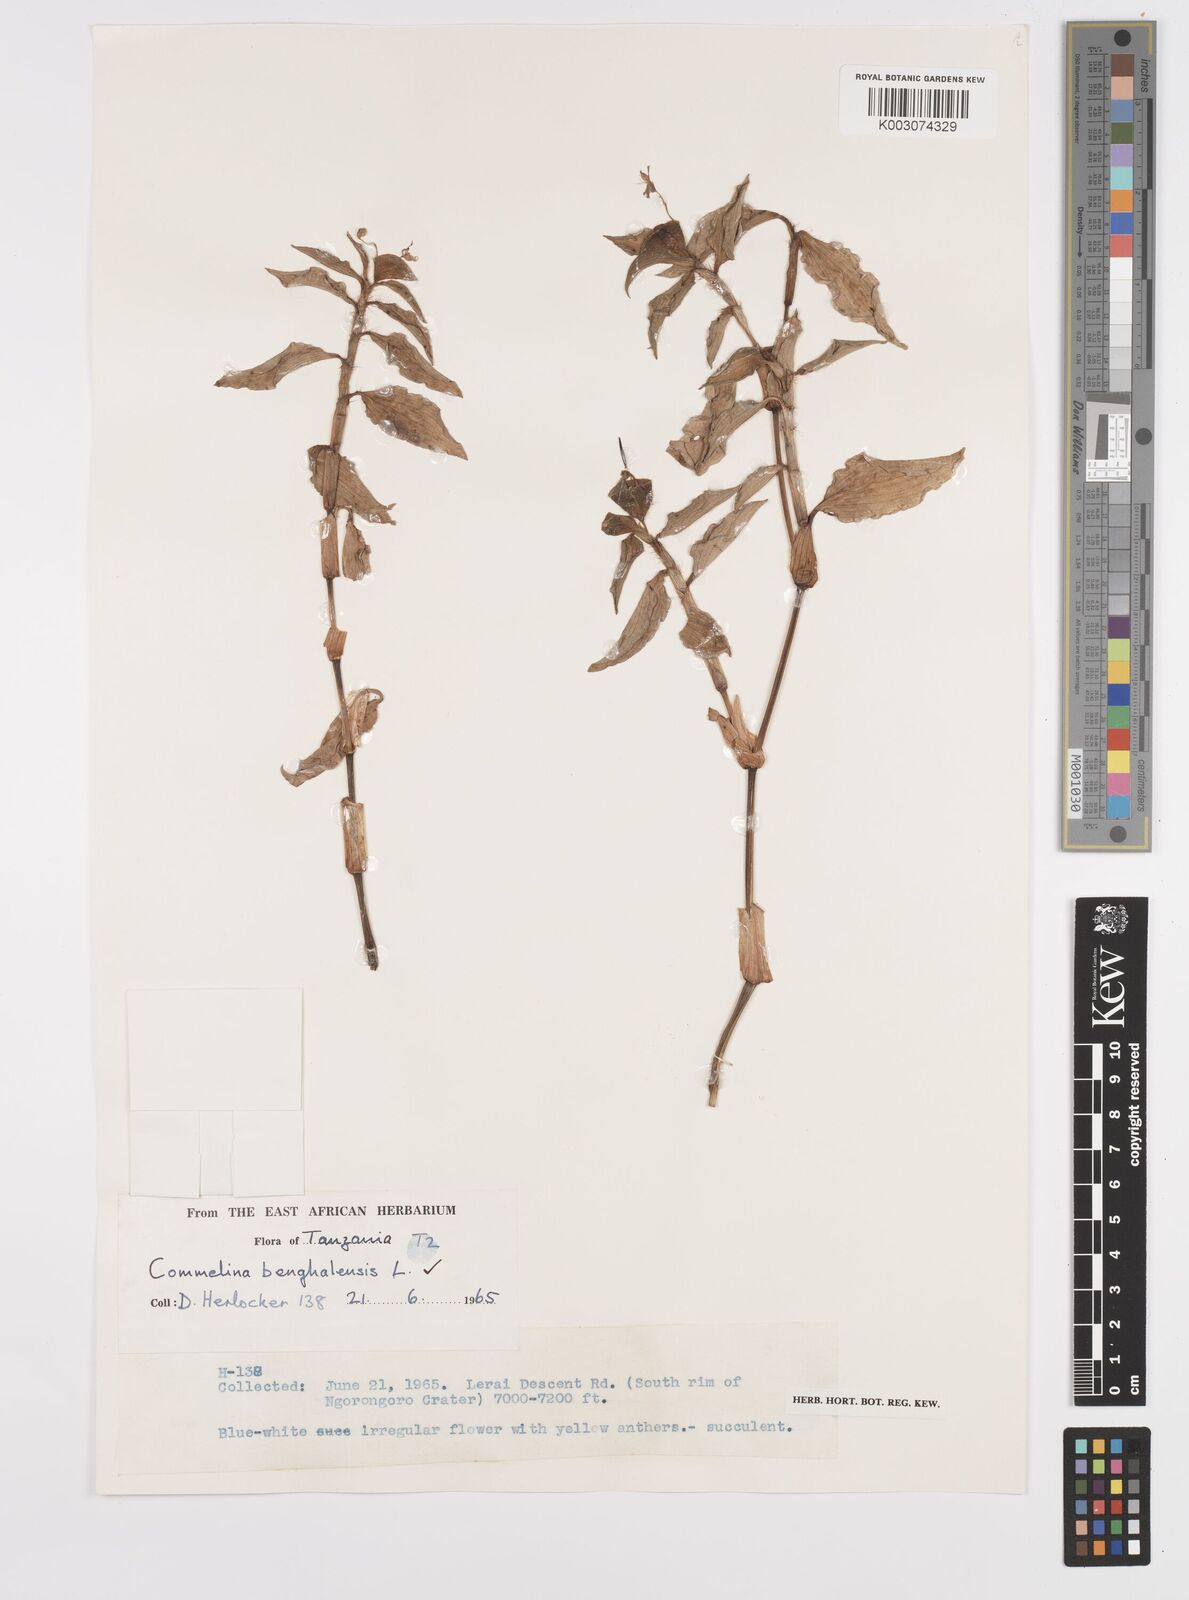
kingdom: Plantae
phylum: Tracheophyta
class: Liliopsida
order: Commelinales
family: Commelinaceae
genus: Commelina
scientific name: Commelina benghalensis
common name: Jio
